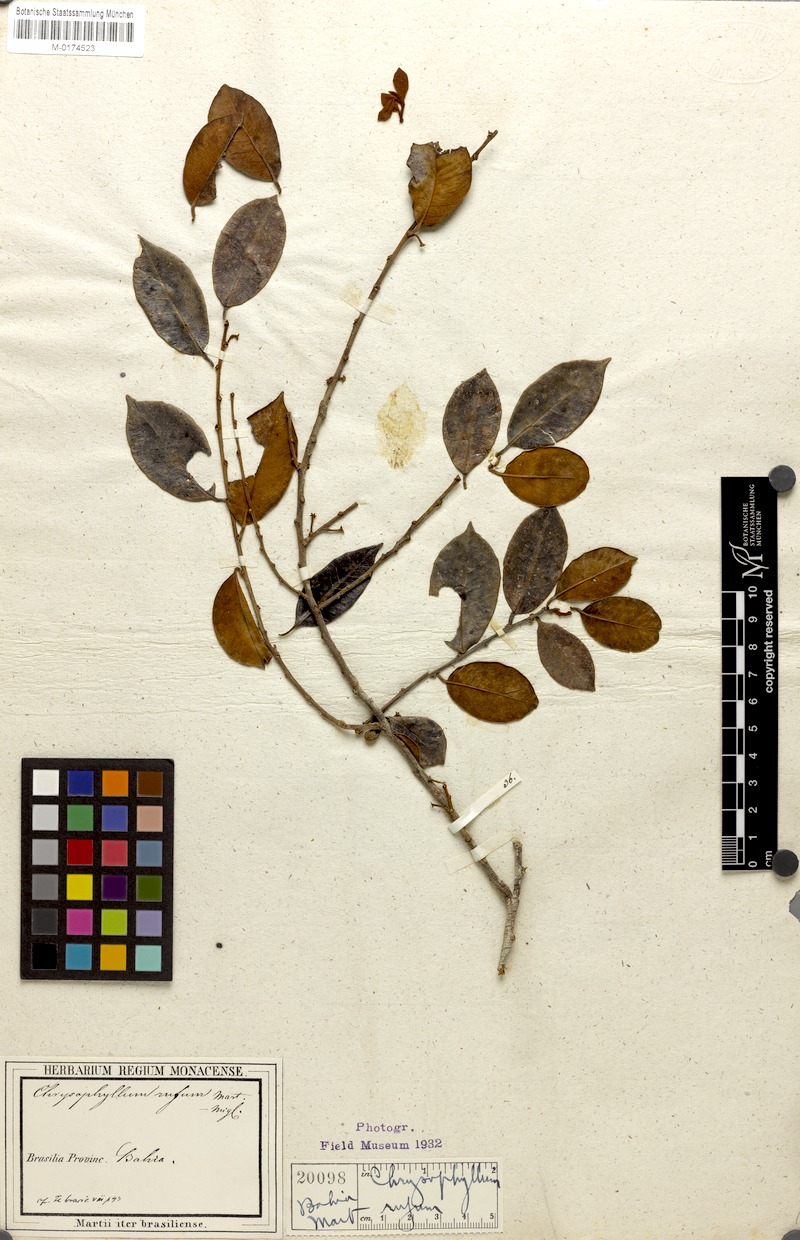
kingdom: Plantae
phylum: Tracheophyta
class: Magnoliopsida
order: Ericales
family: Sapotaceae
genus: Chrysophyllum
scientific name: Chrysophyllum rufum
